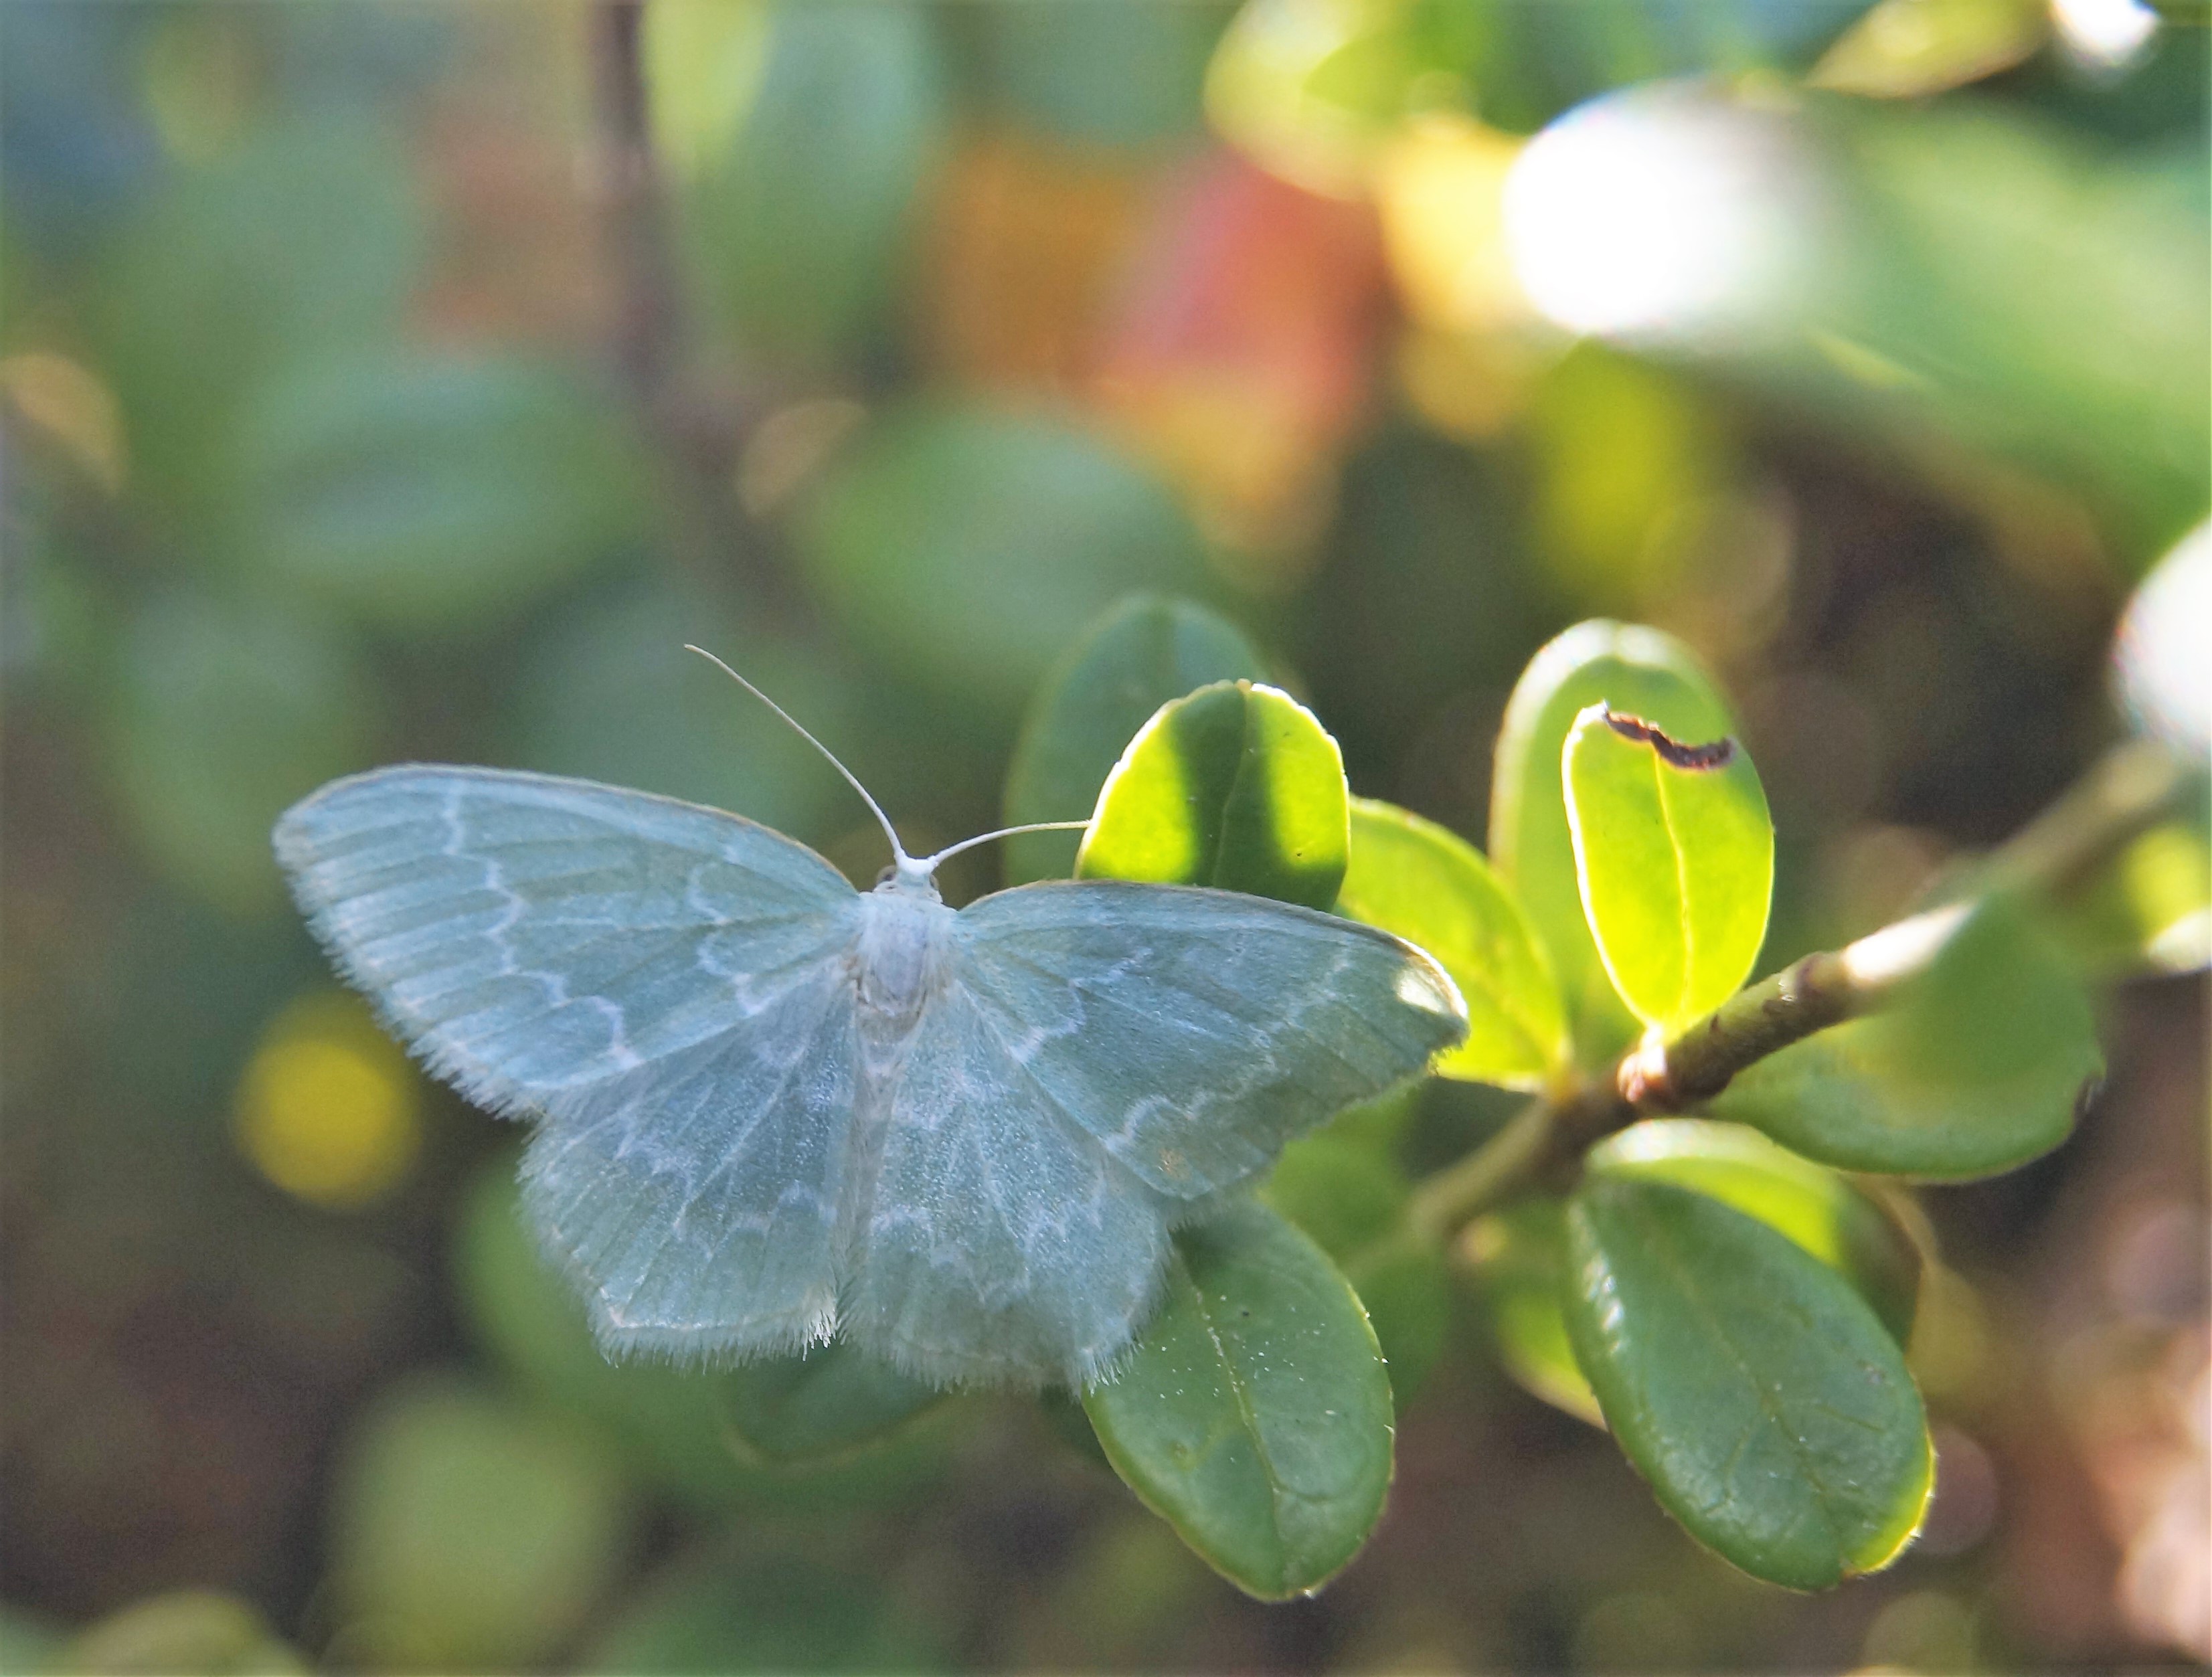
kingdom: Animalia
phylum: Arthropoda
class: Insecta
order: Lepidoptera
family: Geometridae
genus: Jodis
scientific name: Jodis putata
